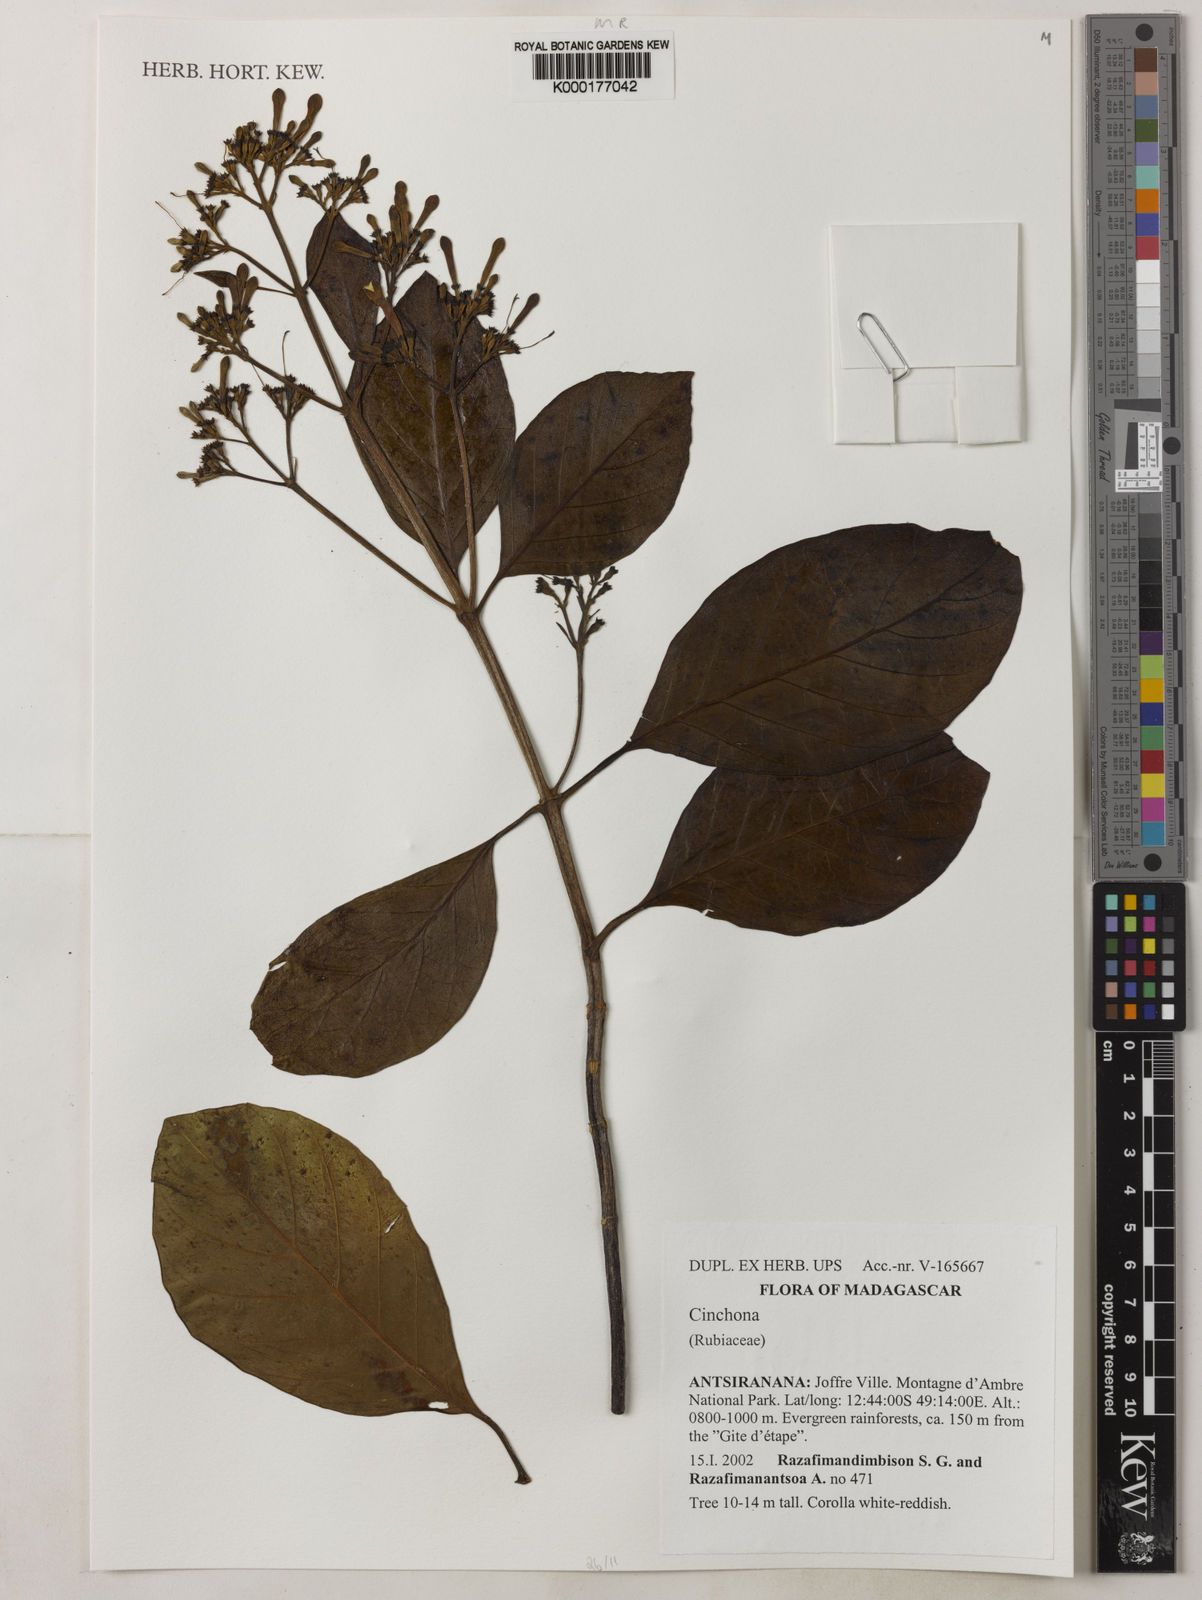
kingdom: Plantae
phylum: Tracheophyta
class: Magnoliopsida
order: Gentianales
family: Rubiaceae
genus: Cinchona
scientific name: Cinchona
